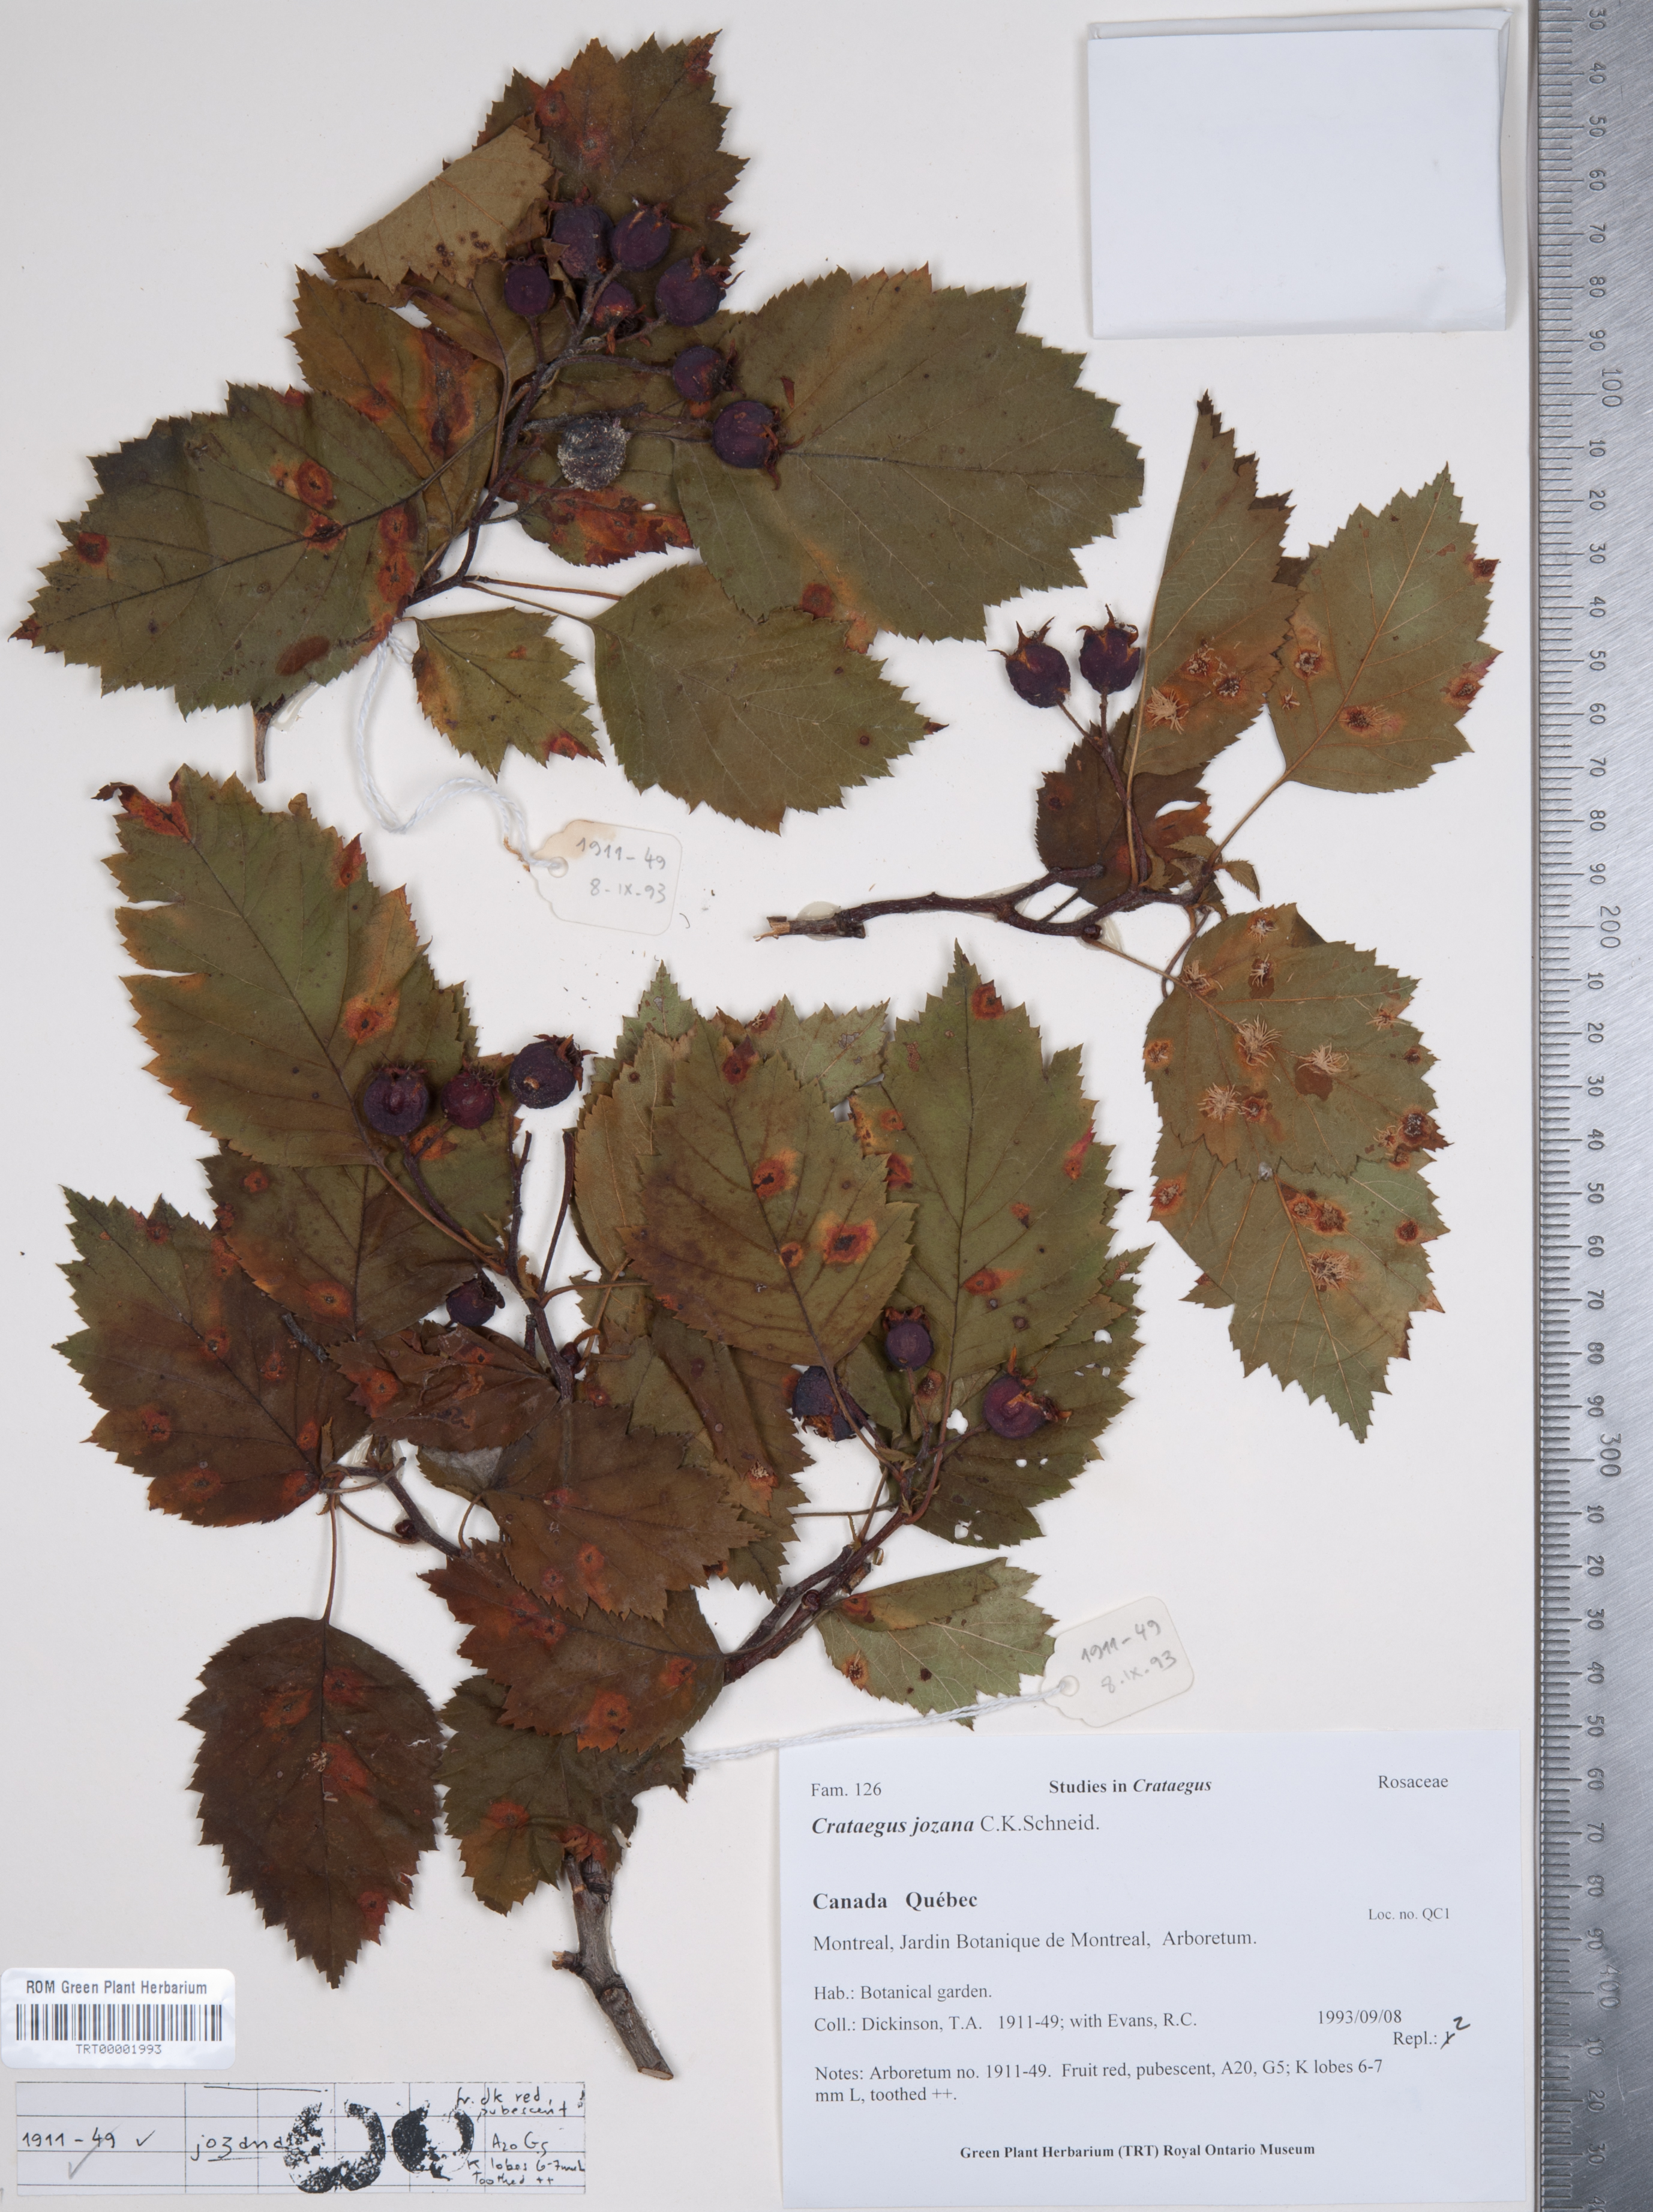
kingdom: Plantae
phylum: Tracheophyta
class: Magnoliopsida
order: Rosales
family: Rosaceae
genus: Crataegus
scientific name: Crataegus mollis
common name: Downy hawthorn
